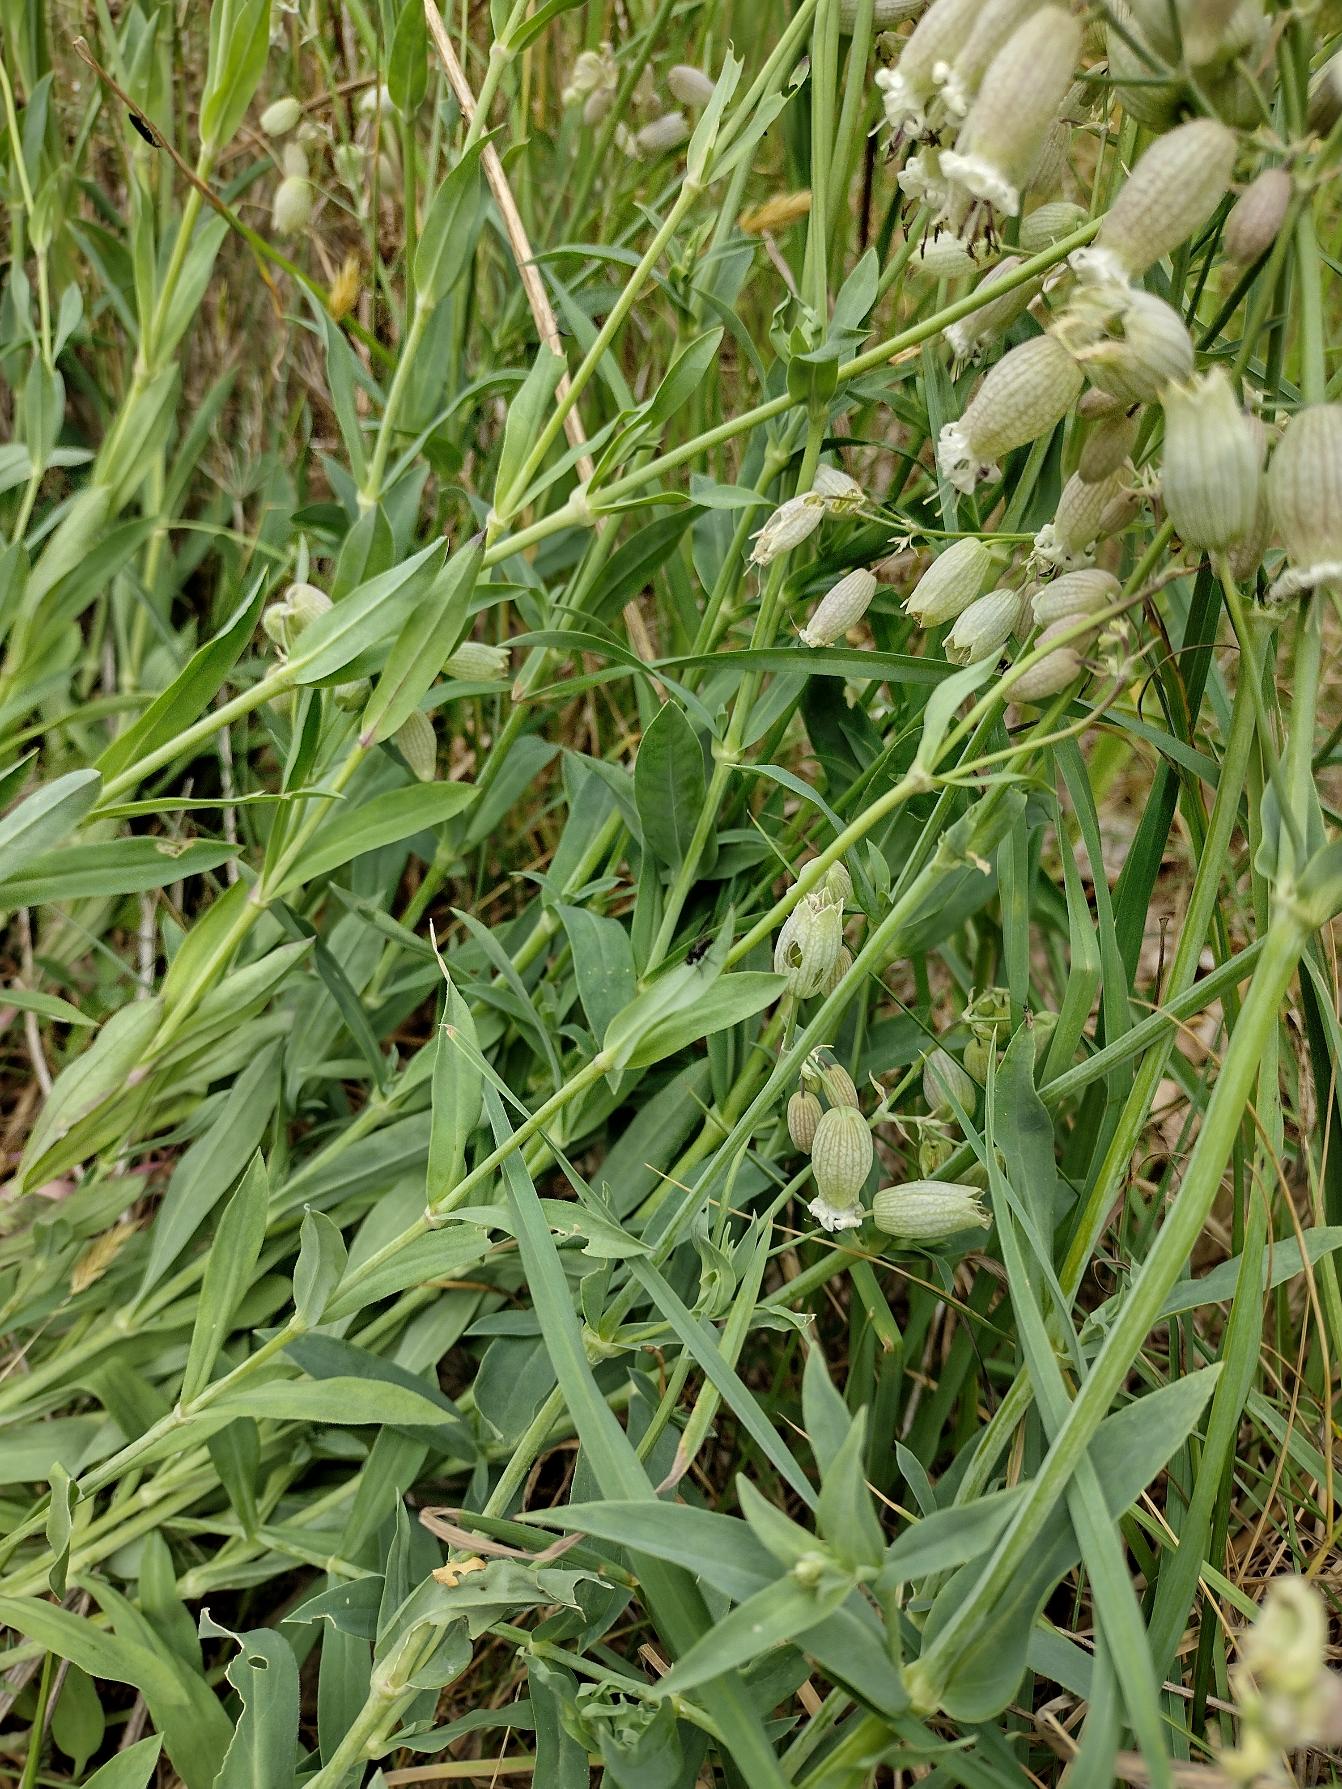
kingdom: Plantae
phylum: Tracheophyta
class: Magnoliopsida
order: Caryophyllales
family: Caryophyllaceae
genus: Silene
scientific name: Silene vulgaris
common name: Blæresmælde
